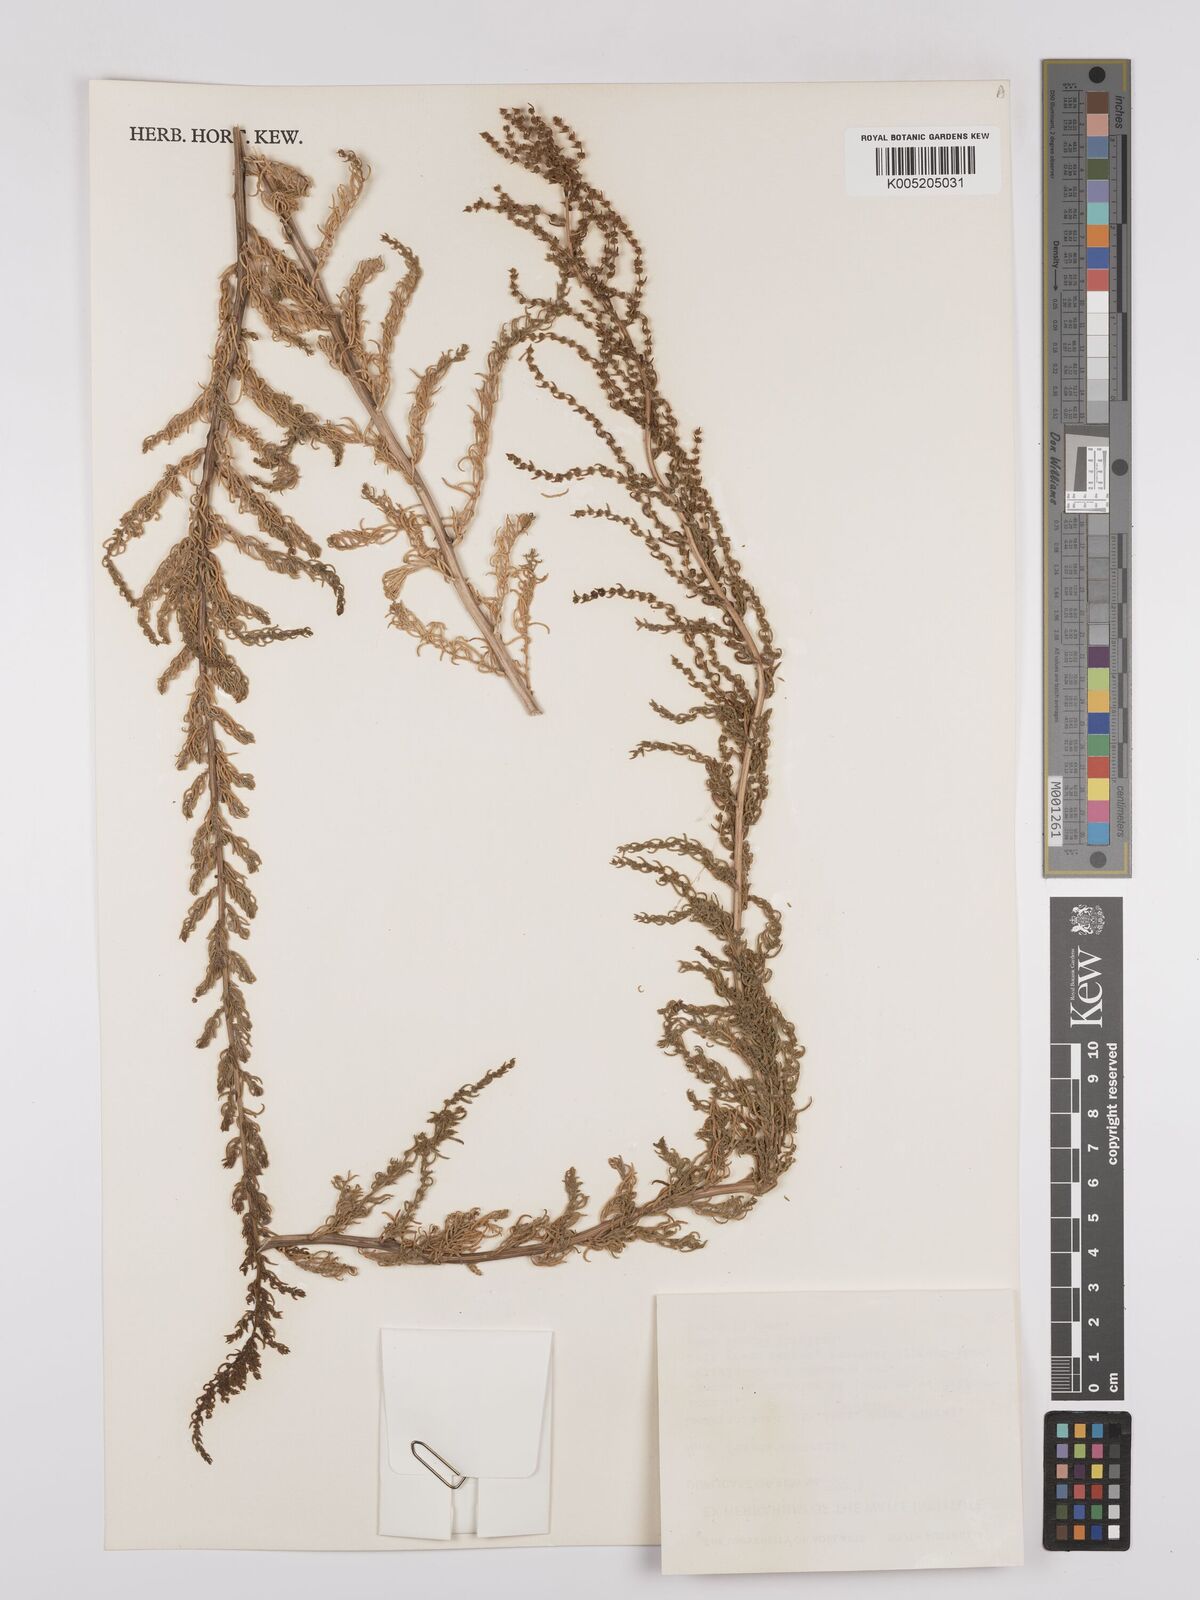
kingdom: Plantae
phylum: Tracheophyta
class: Magnoliopsida
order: Caryophyllales
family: Amaranthaceae
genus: Suaeda
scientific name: Suaeda australis
